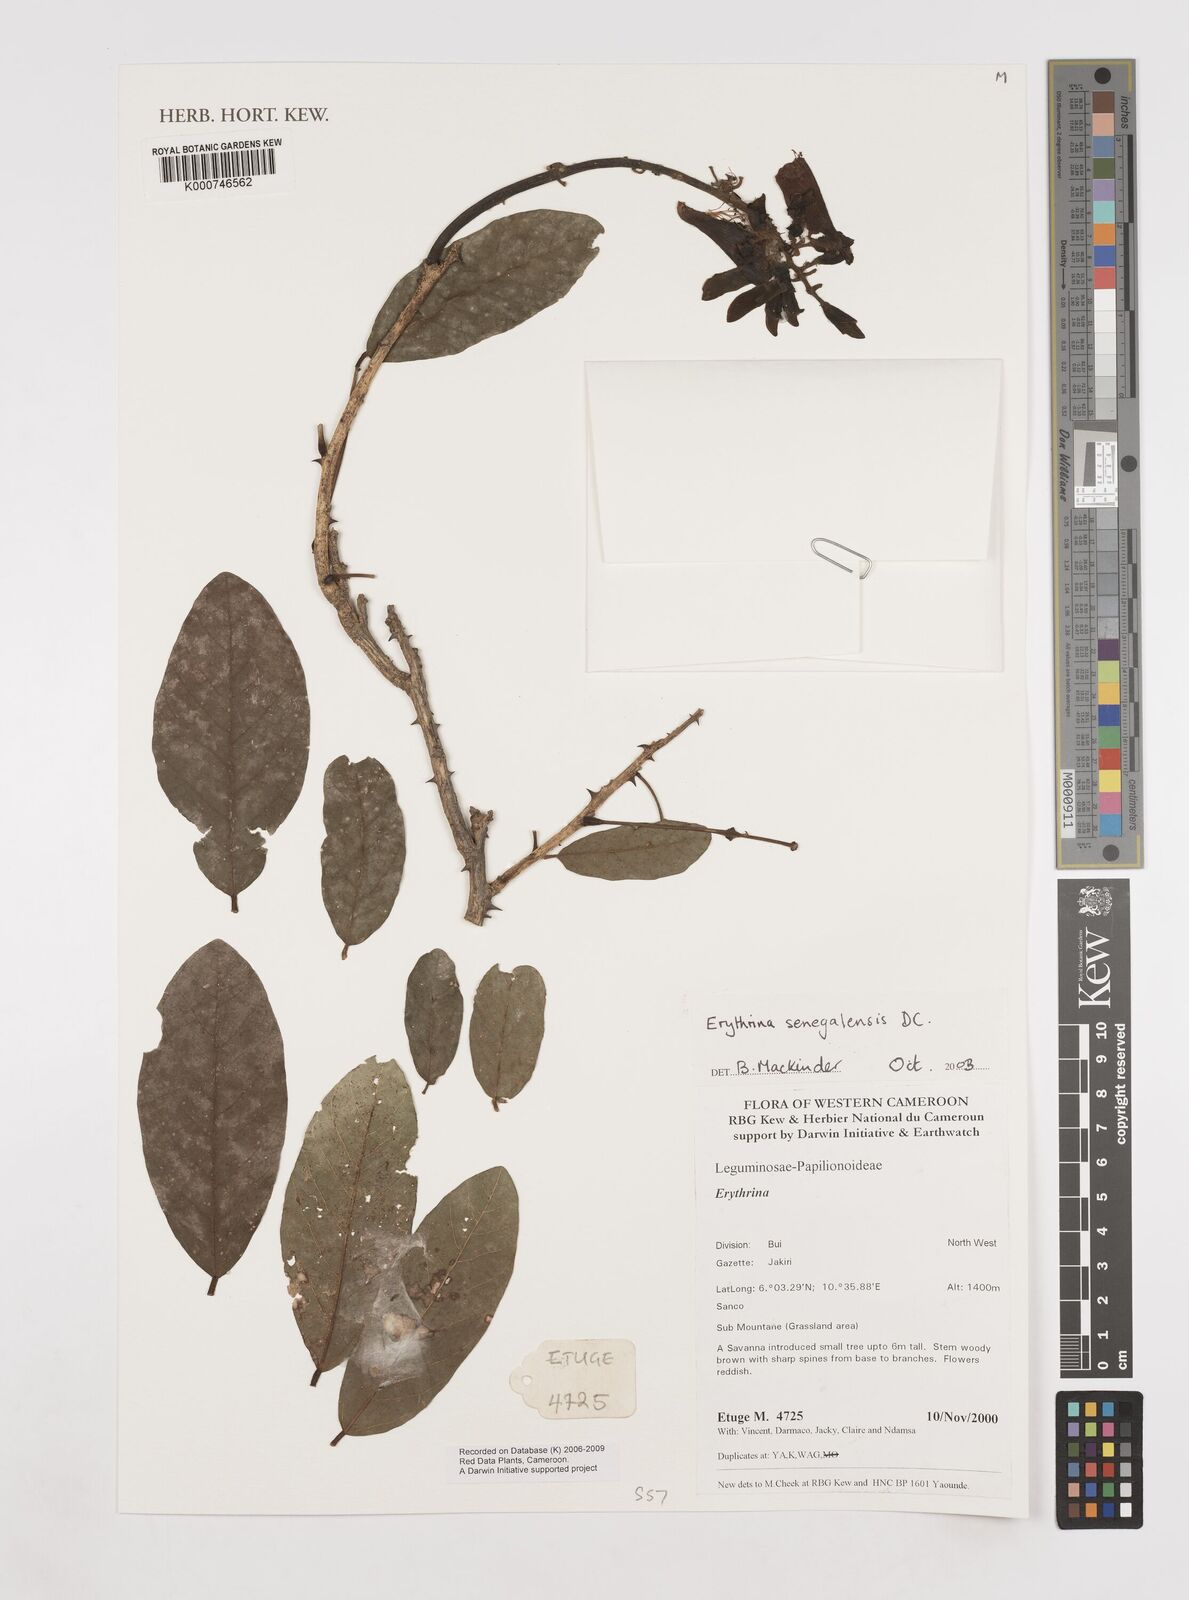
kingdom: Plantae
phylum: Tracheophyta
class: Magnoliopsida
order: Fabales
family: Fabaceae
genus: Erythrina
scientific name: Erythrina senegalensis
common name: Senegal coraltree
